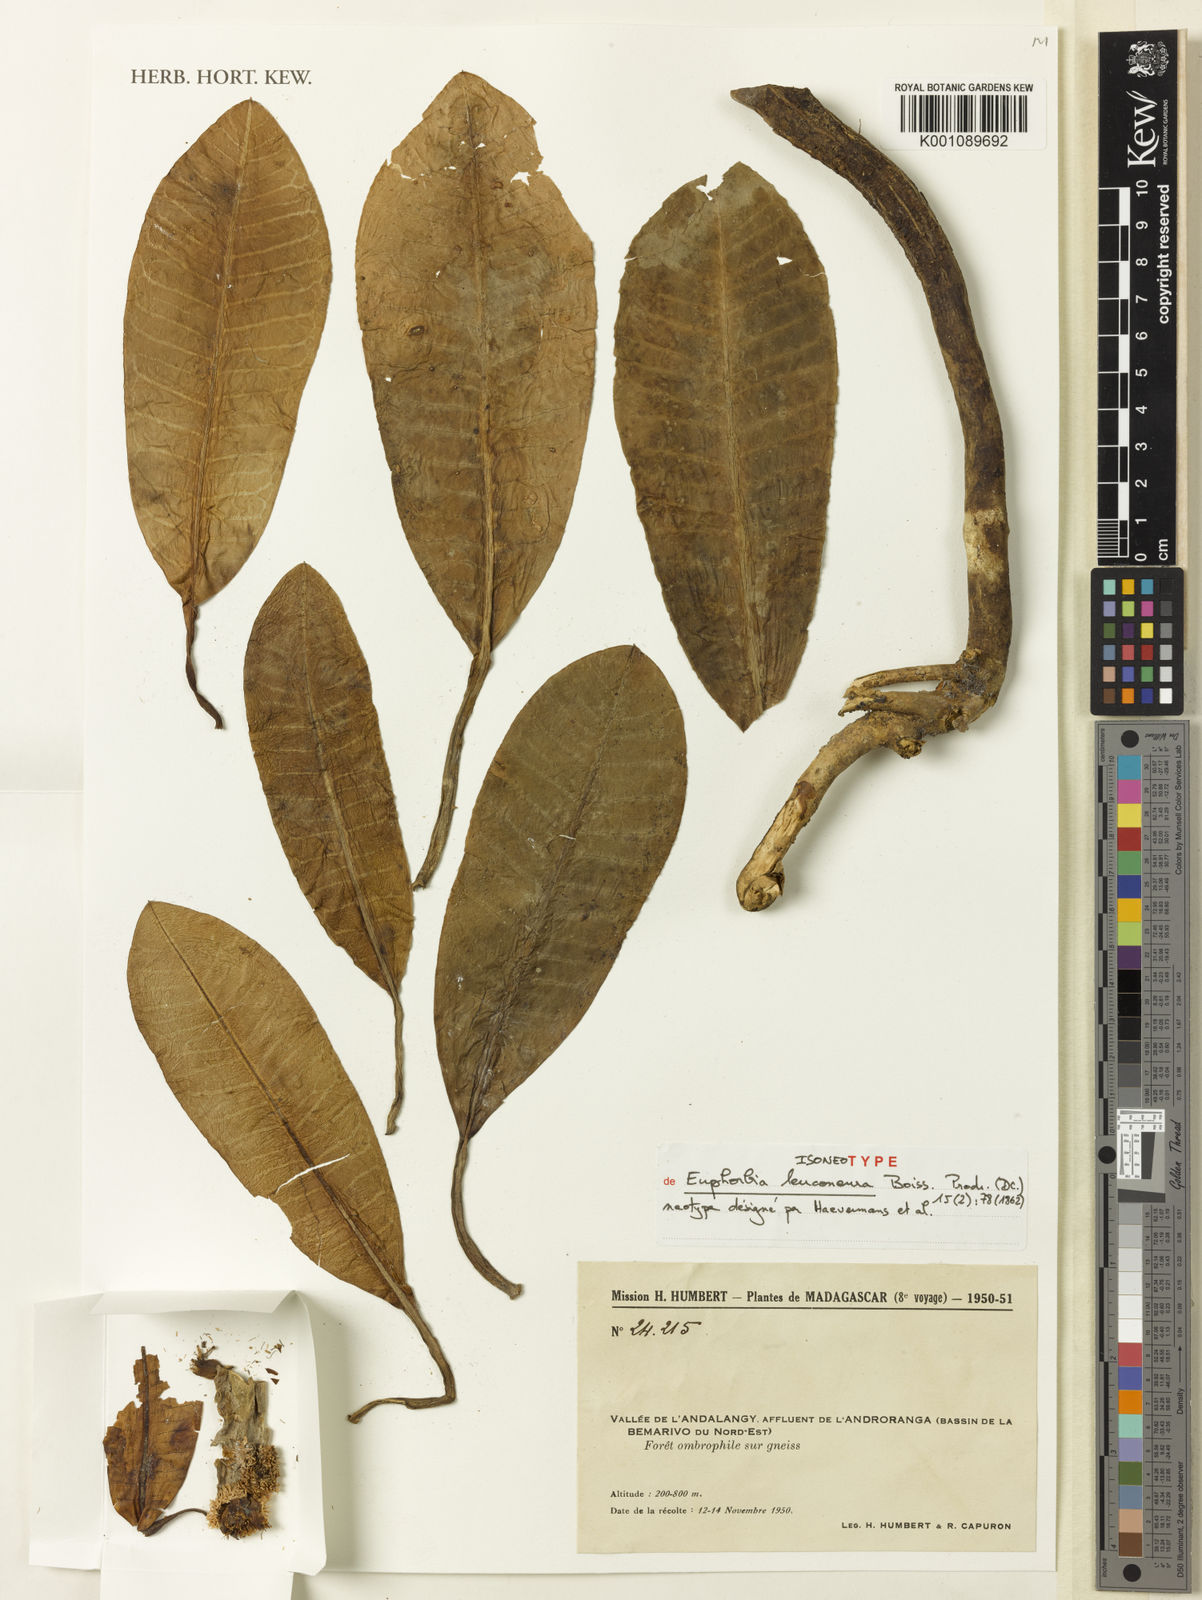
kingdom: Plantae
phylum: Tracheophyta
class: Magnoliopsida
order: Malpighiales
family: Euphorbiaceae
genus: Euphorbia
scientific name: Euphorbia leuconeura
